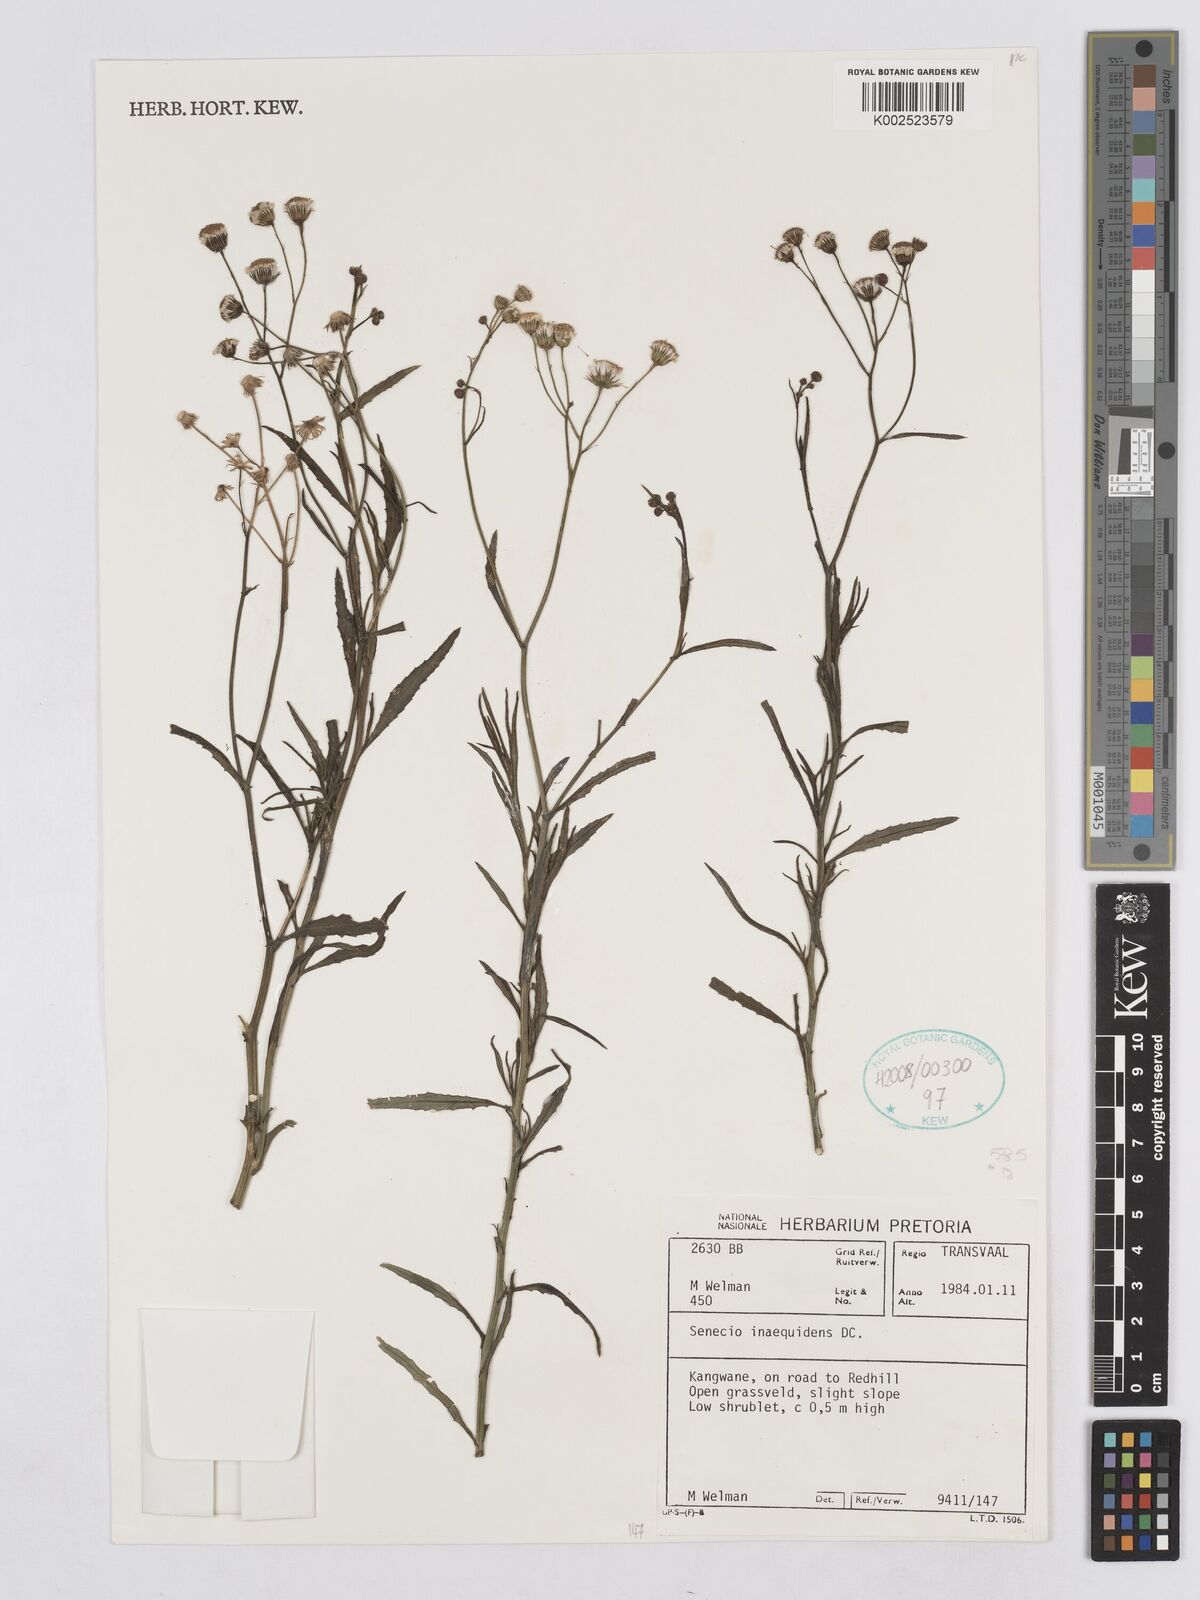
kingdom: Plantae
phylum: Tracheophyta
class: Magnoliopsida
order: Asterales
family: Asteraceae
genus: Senecio
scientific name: Senecio inaequidens
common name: Narrow-leaved ragwort
